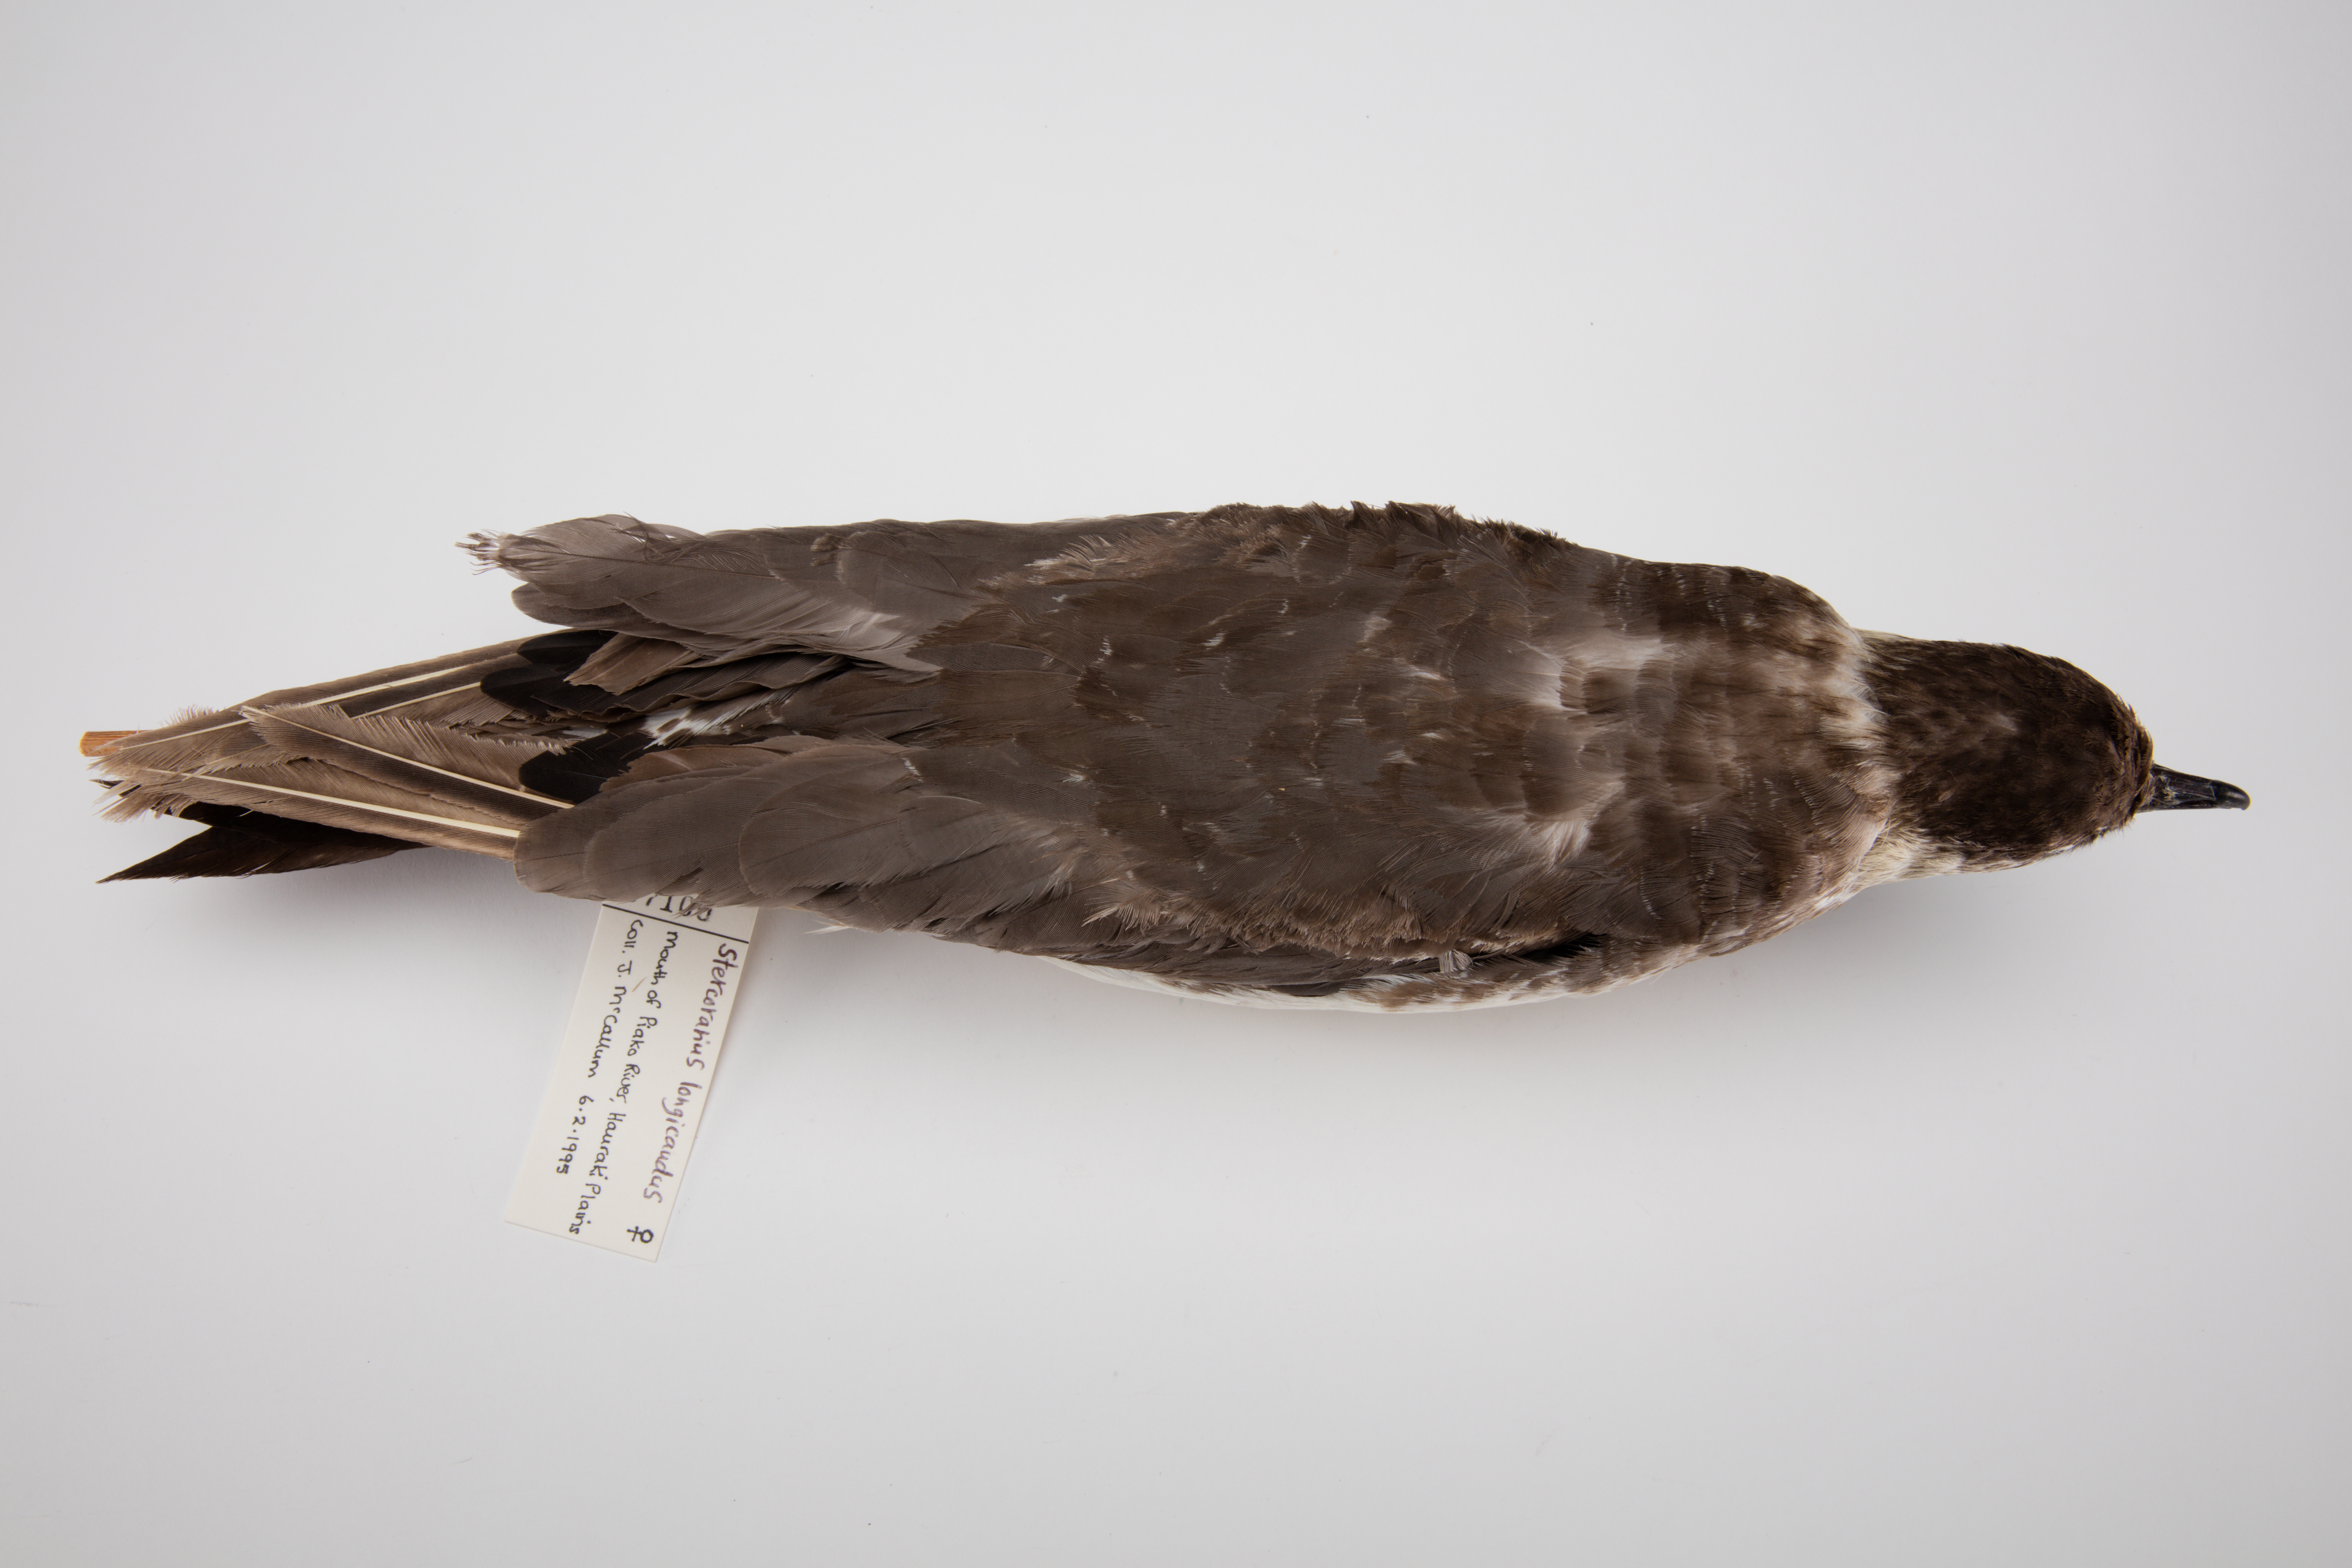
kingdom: Animalia
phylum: Chordata
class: Aves
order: Charadriiformes
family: Stercorariidae
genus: Stercorarius
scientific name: Stercorarius longicaudus
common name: Long-tailed jaeger
